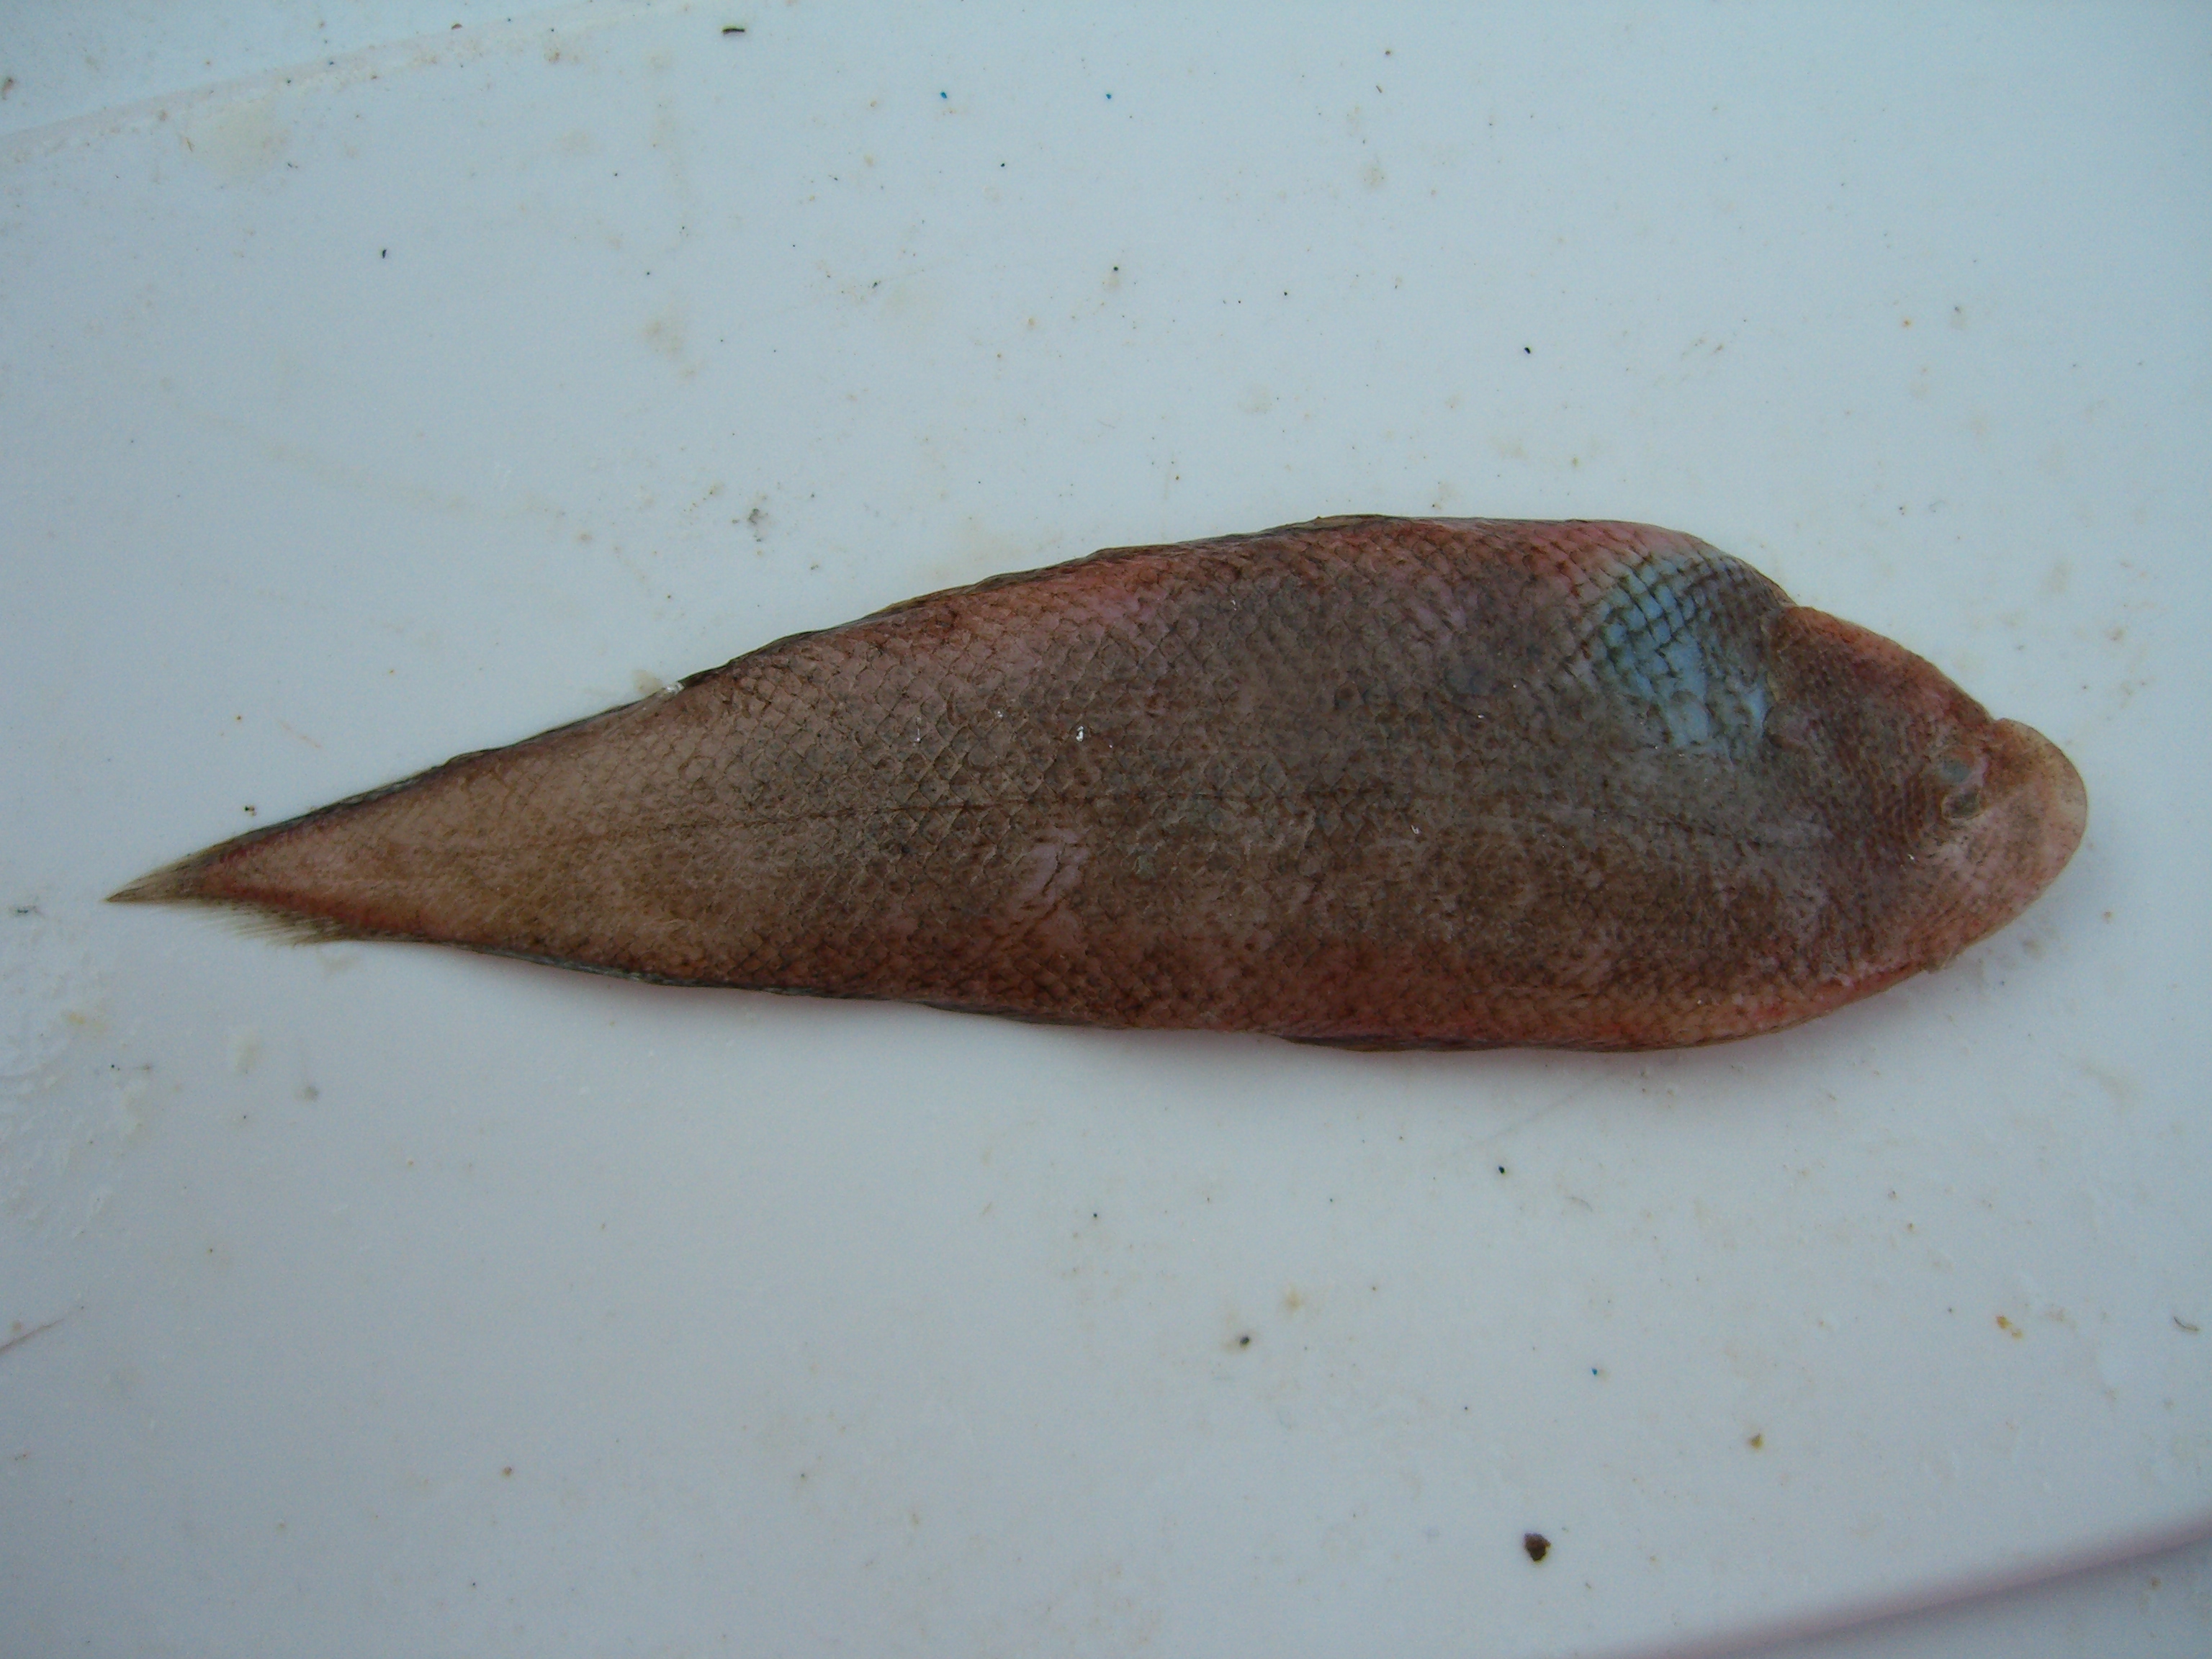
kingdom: Animalia
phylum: Chordata
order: Pleuronectiformes
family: Cynoglossidae
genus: Cynoglossus
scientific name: Cynoglossus sinusarabici
